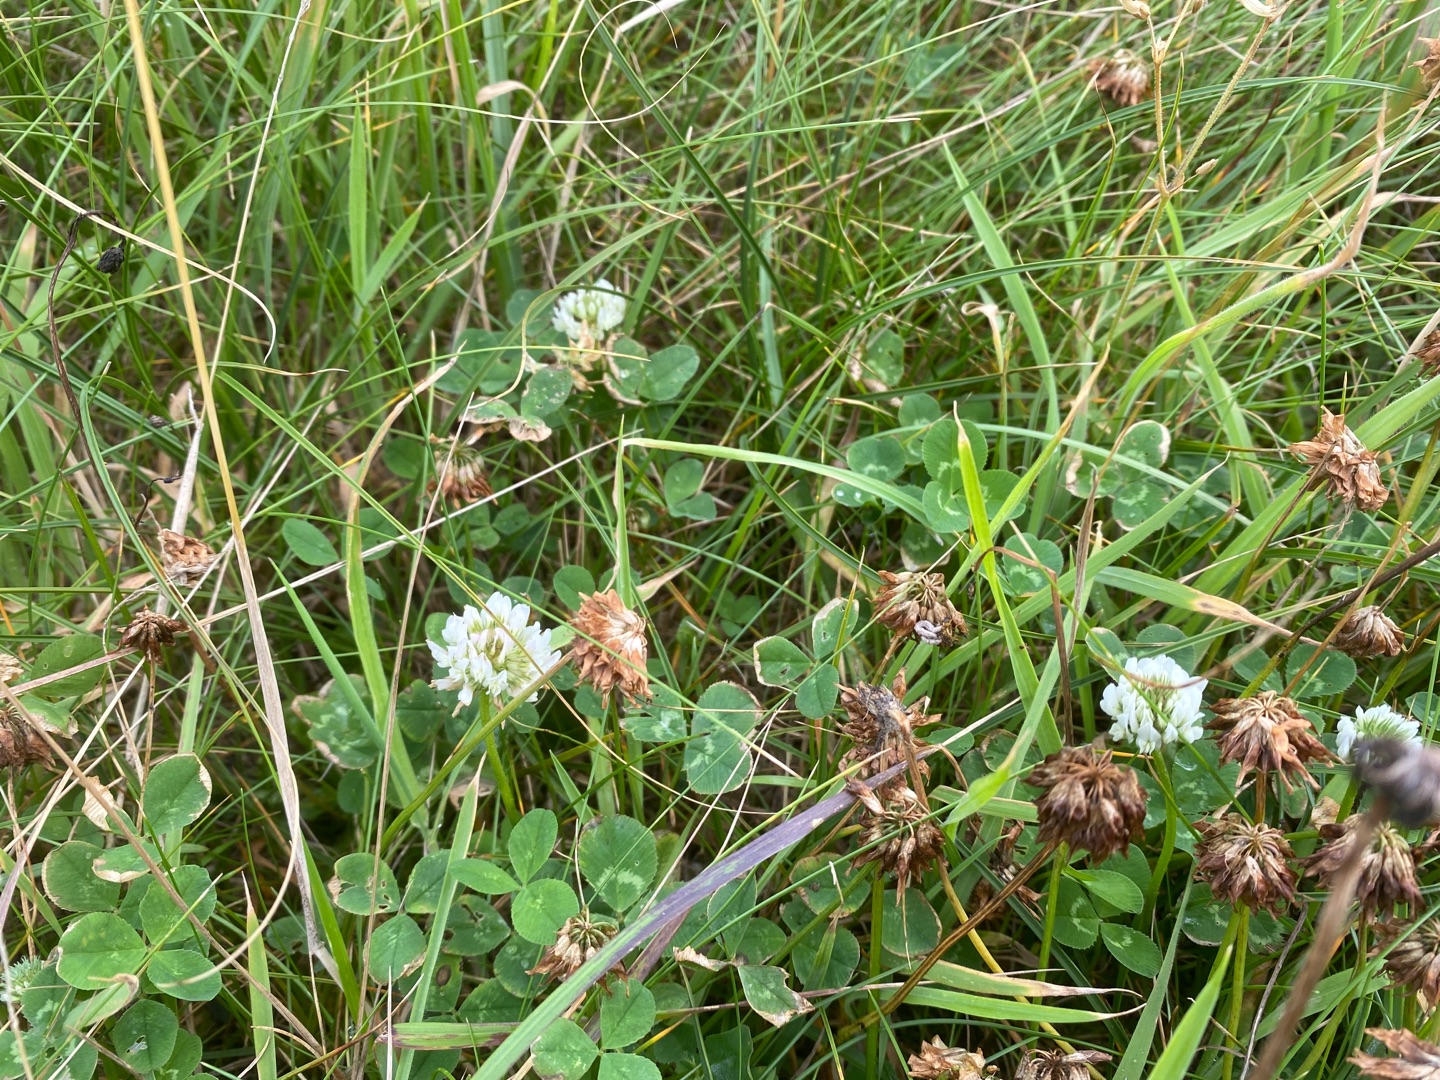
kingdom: Plantae
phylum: Tracheophyta
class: Magnoliopsida
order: Fabales
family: Fabaceae
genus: Trifolium
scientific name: Trifolium repens
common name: Hvid-kløver
